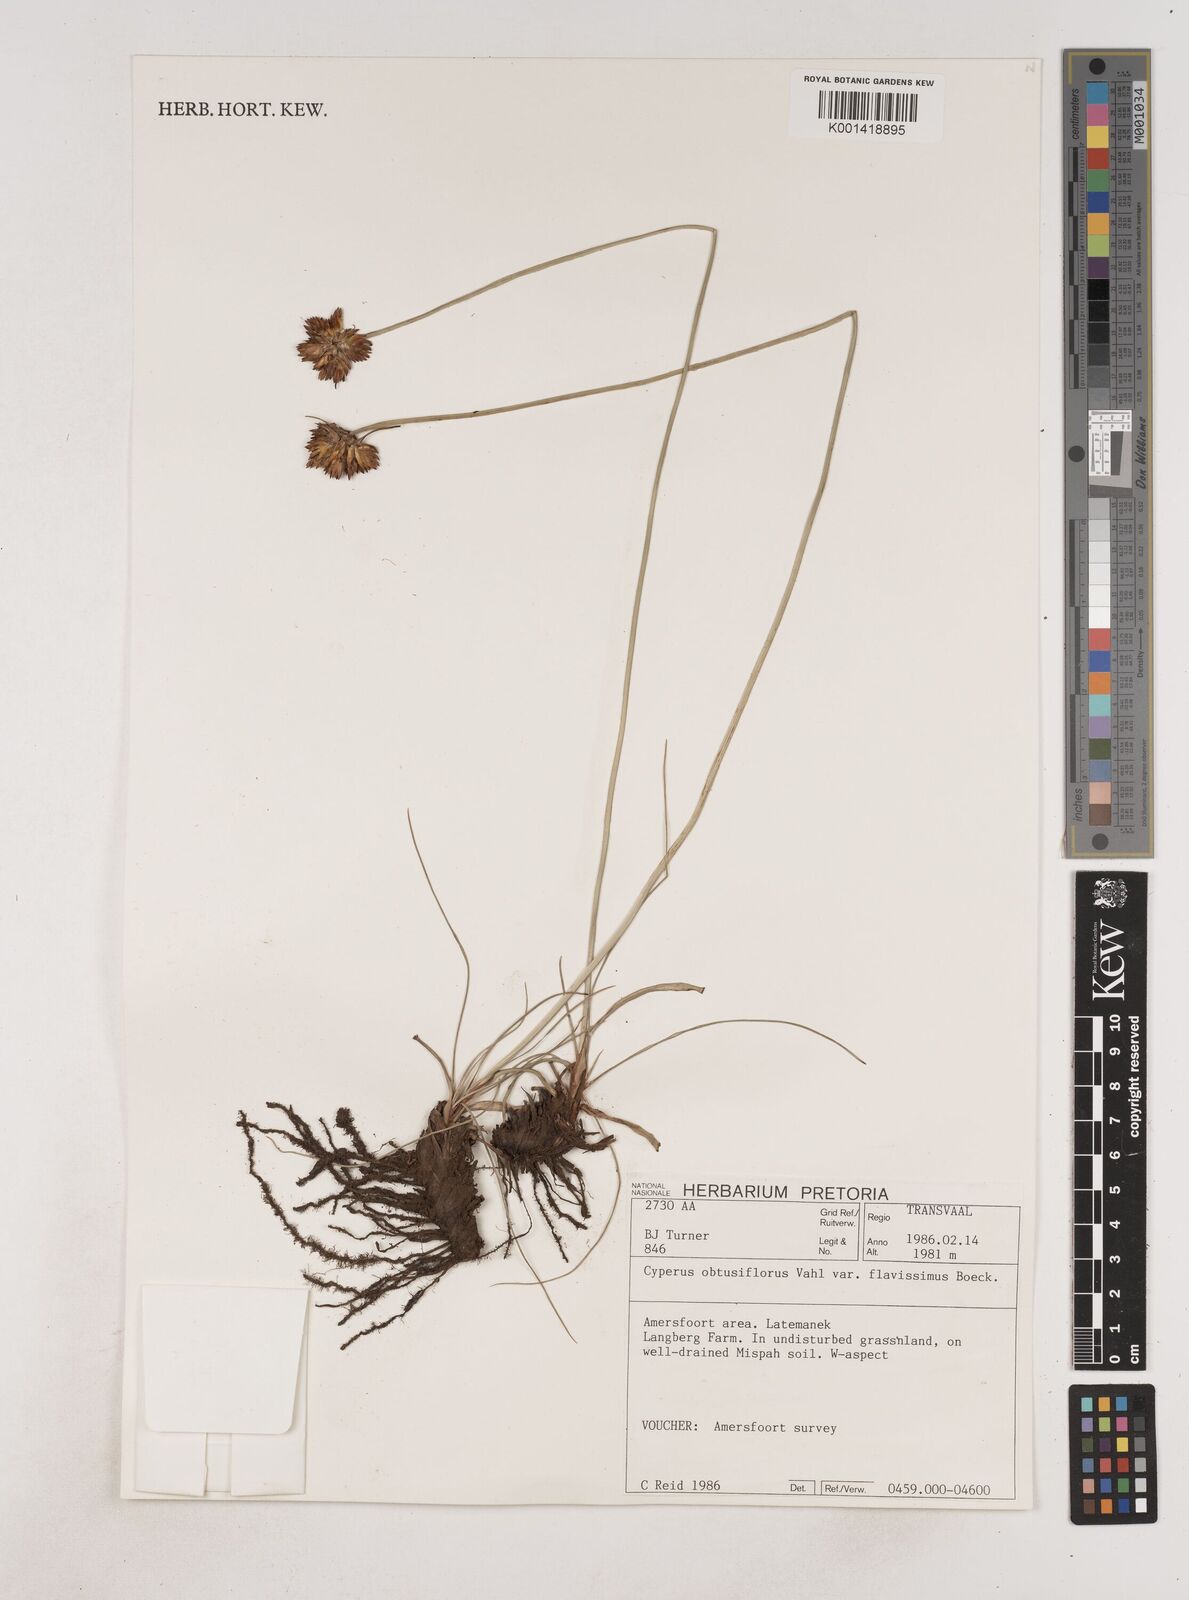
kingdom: Plantae
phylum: Tracheophyta
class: Liliopsida
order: Poales
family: Cyperaceae
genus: Cyperus
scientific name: Cyperus sphaerocephalus
